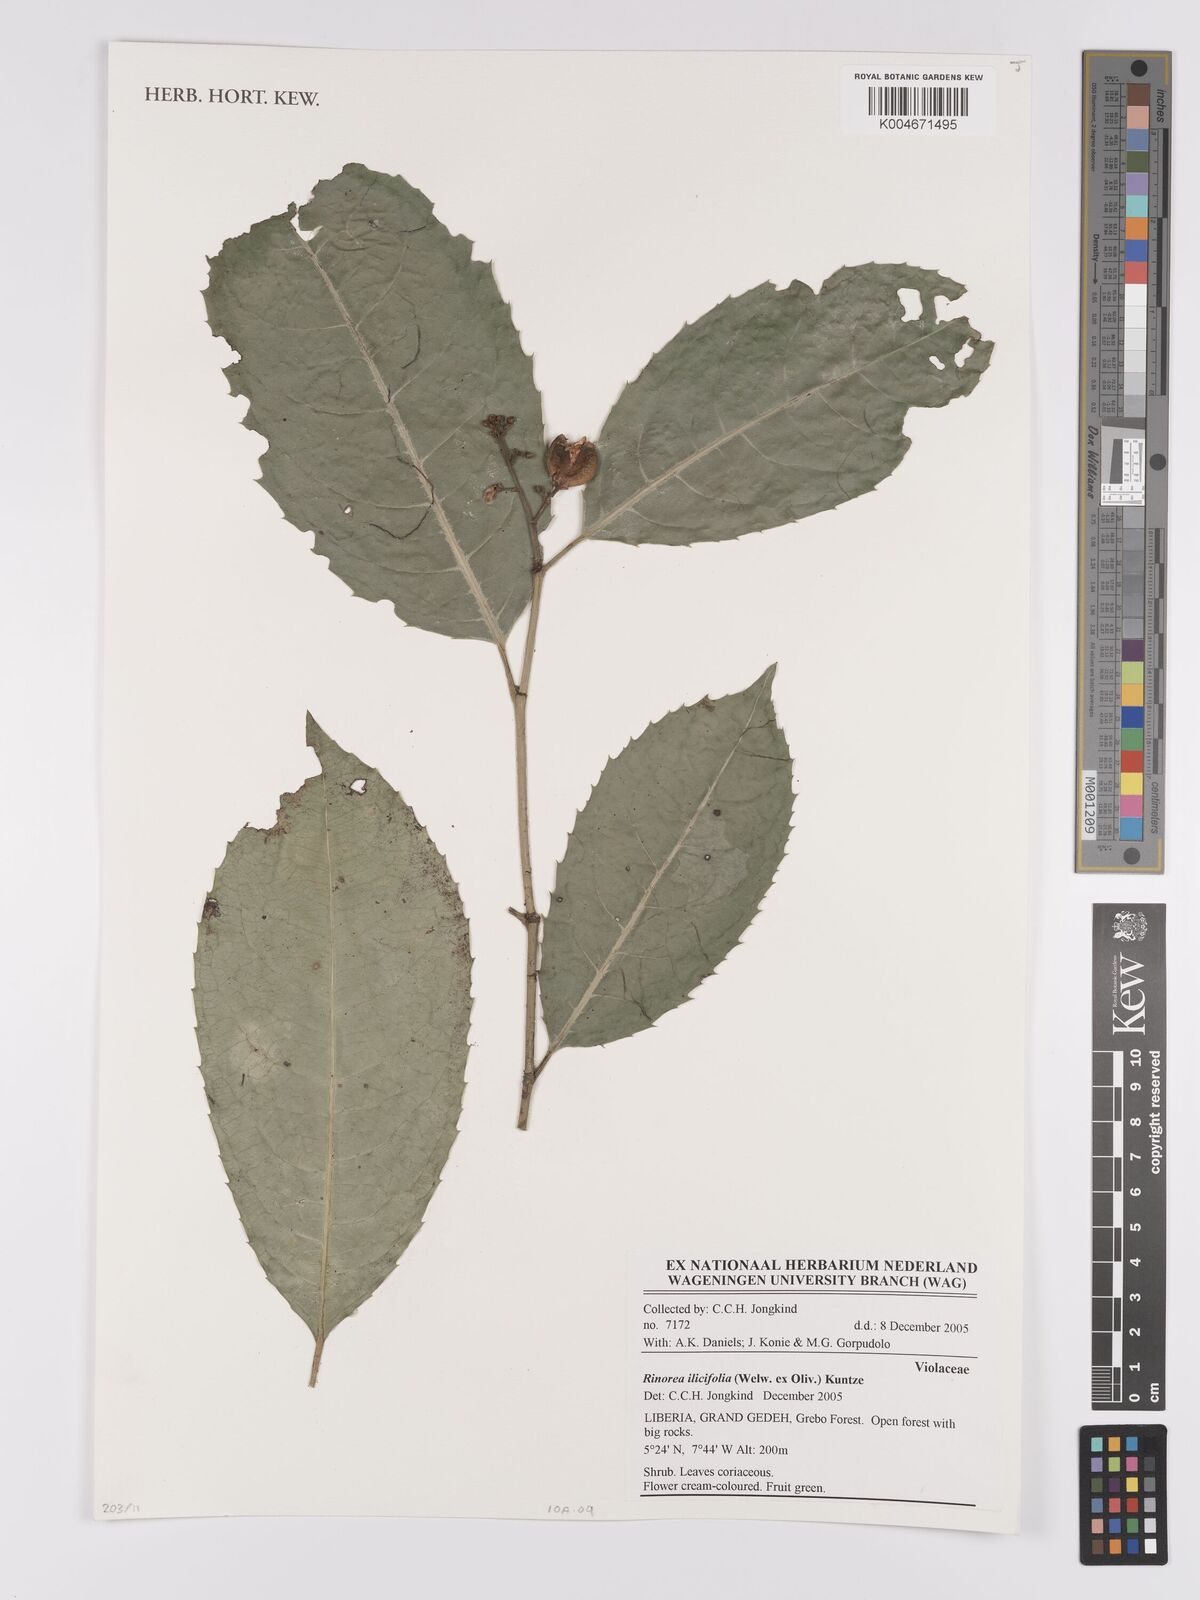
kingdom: Plantae
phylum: Tracheophyta
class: Magnoliopsida
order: Malpighiales
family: Violaceae
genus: Rinorea
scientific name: Rinorea ilicifolia
